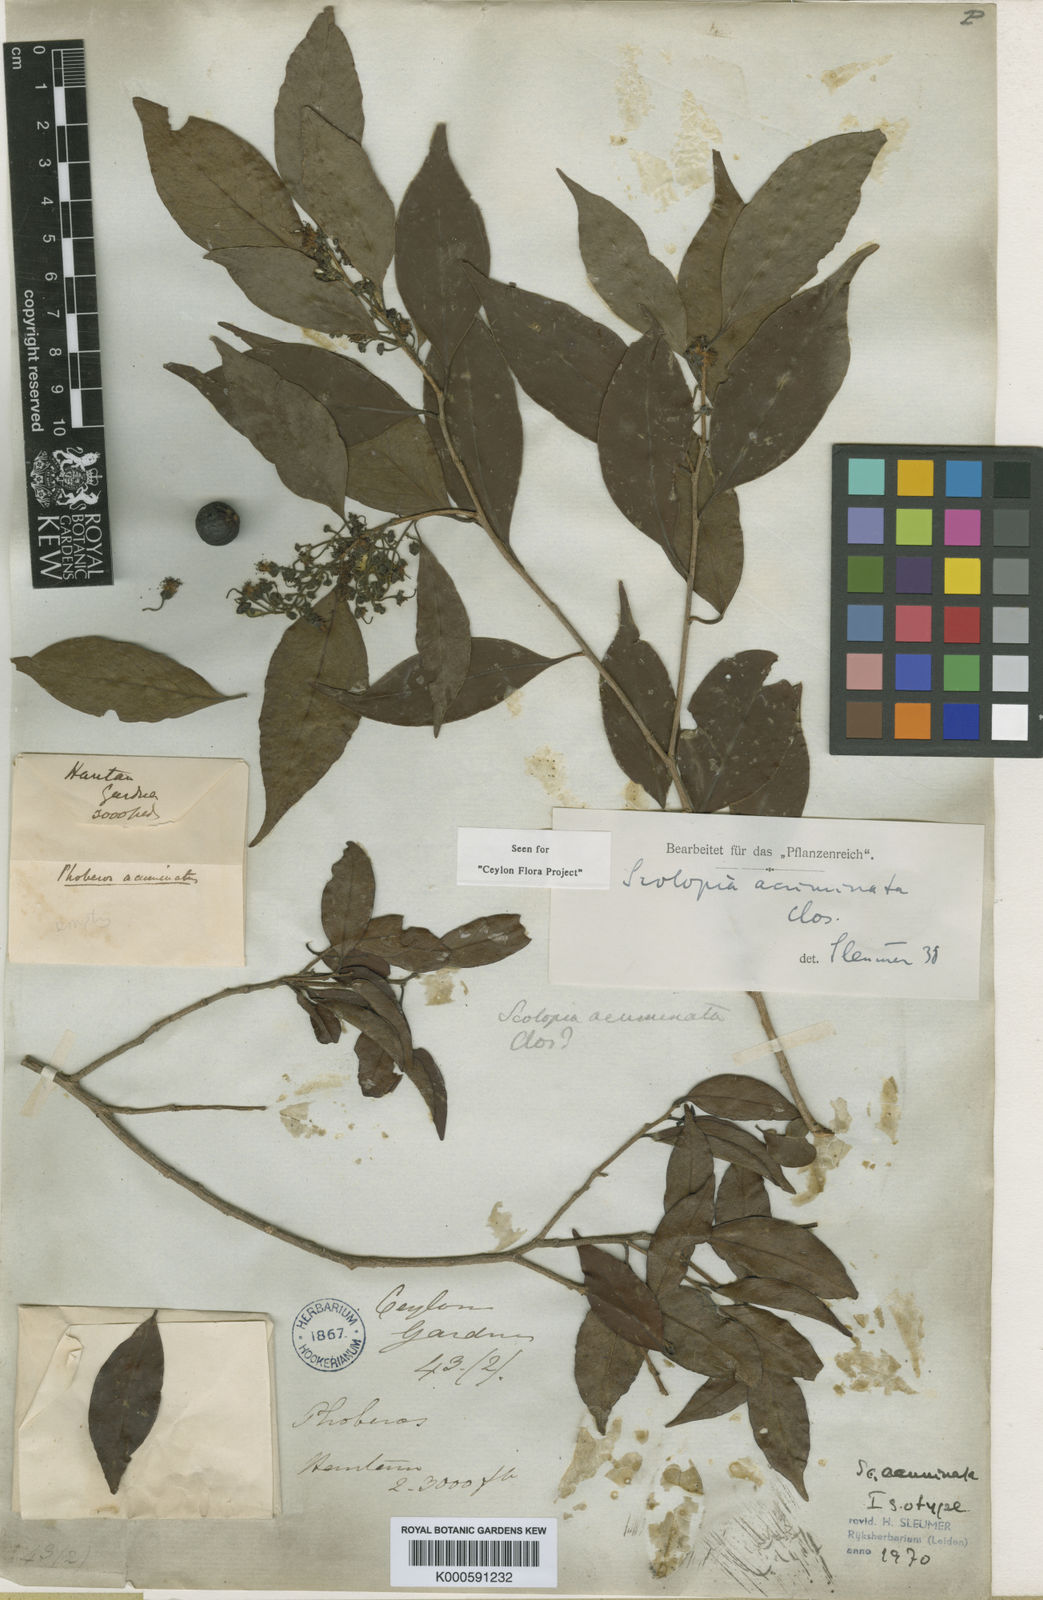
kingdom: Plantae
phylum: Tracheophyta
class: Magnoliopsida
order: Malpighiales
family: Salicaceae
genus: Scolopia
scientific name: Scolopia acuminata
